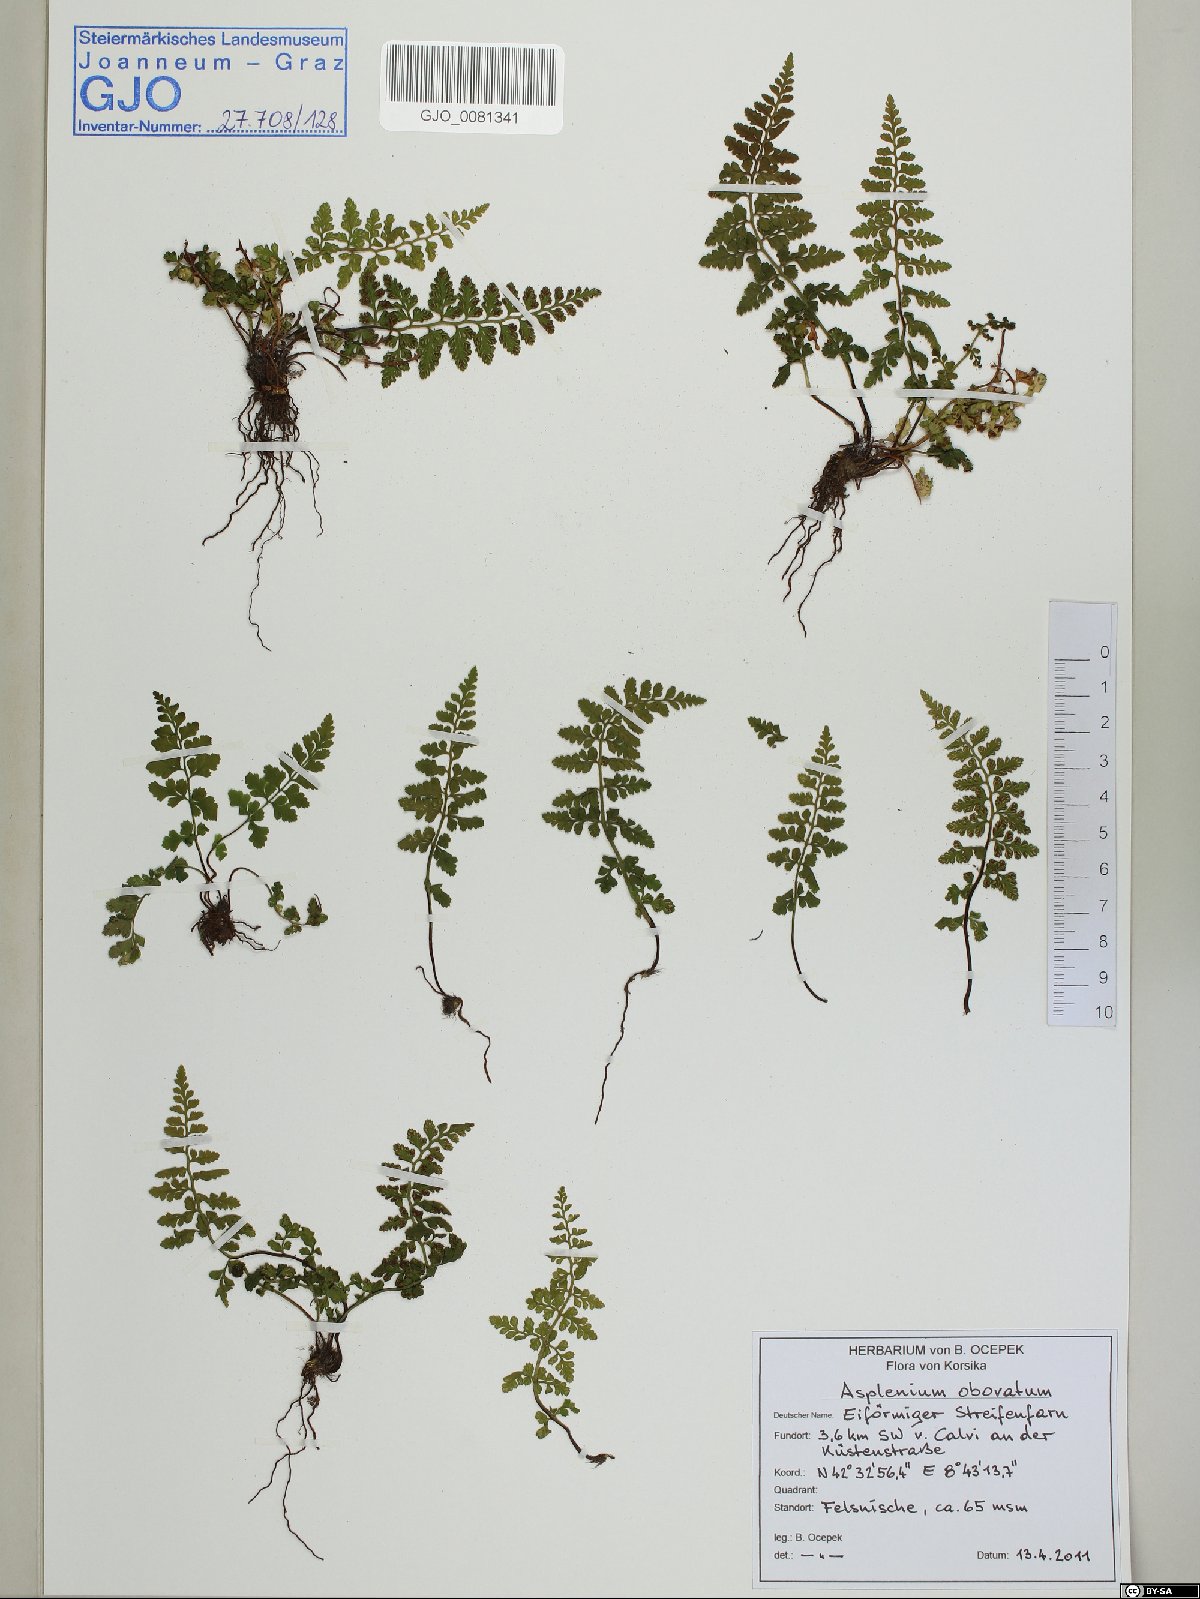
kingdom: Plantae
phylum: Tracheophyta
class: Polypodiopsida
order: Polypodiales
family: Aspleniaceae
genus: Asplenium
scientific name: Asplenium obovatum
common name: Lanceolate spleenwort
